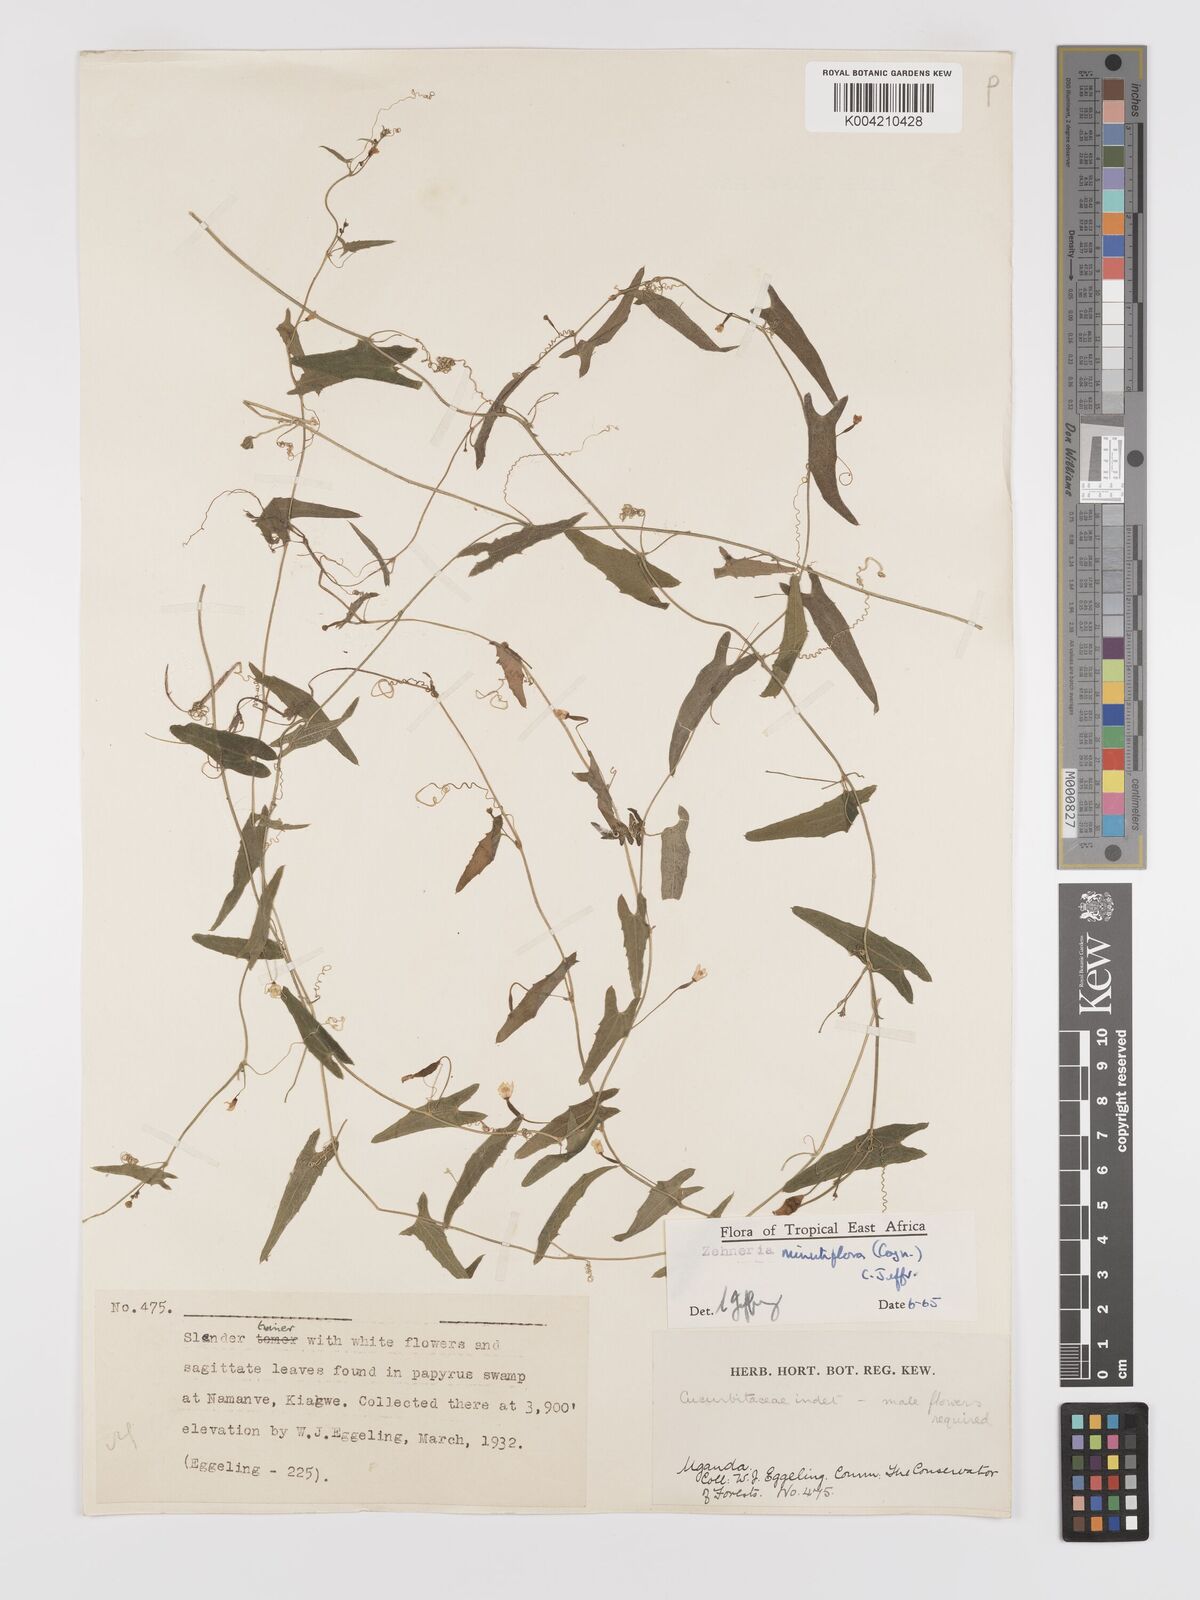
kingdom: Plantae
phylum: Tracheophyta
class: Magnoliopsida
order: Cucurbitales
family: Cucurbitaceae
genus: Zehneria
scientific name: Zehneria minutiflora
